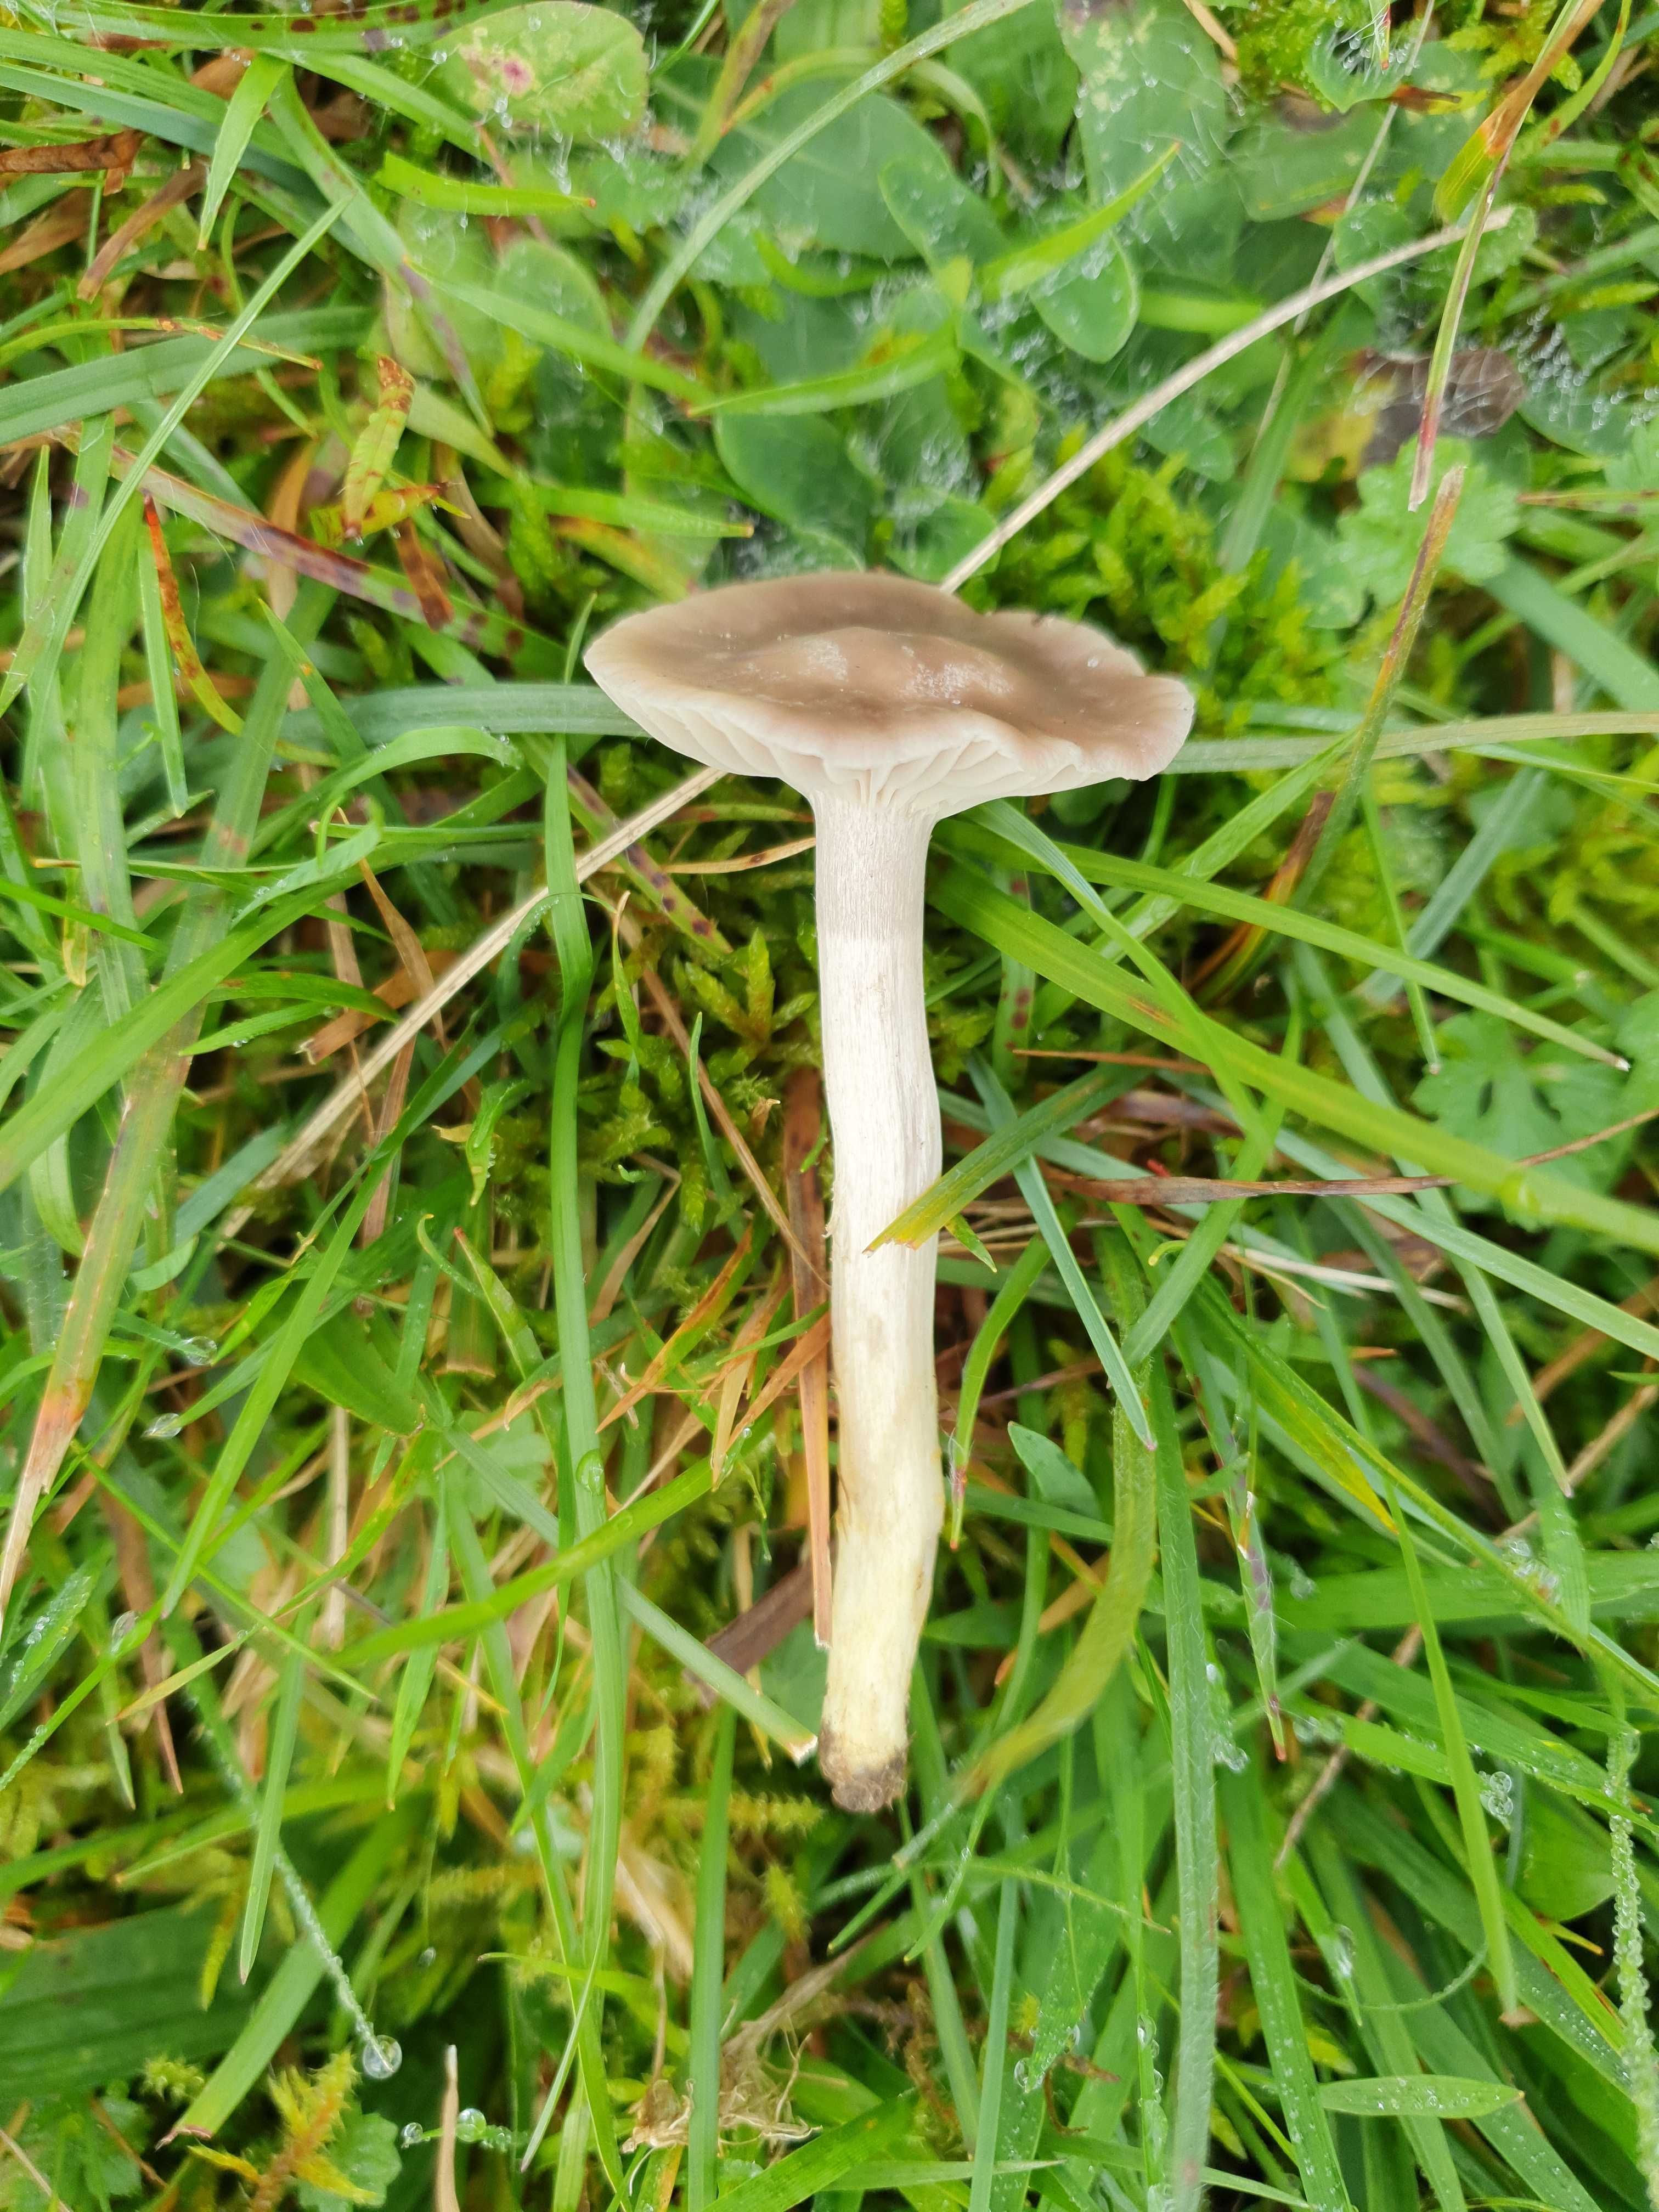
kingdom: Fungi
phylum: Basidiomycota
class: Agaricomycetes
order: Agaricales
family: Hygrophoraceae
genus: Cuphophyllus
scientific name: Cuphophyllus flavipes
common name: gulfodet vokshat
